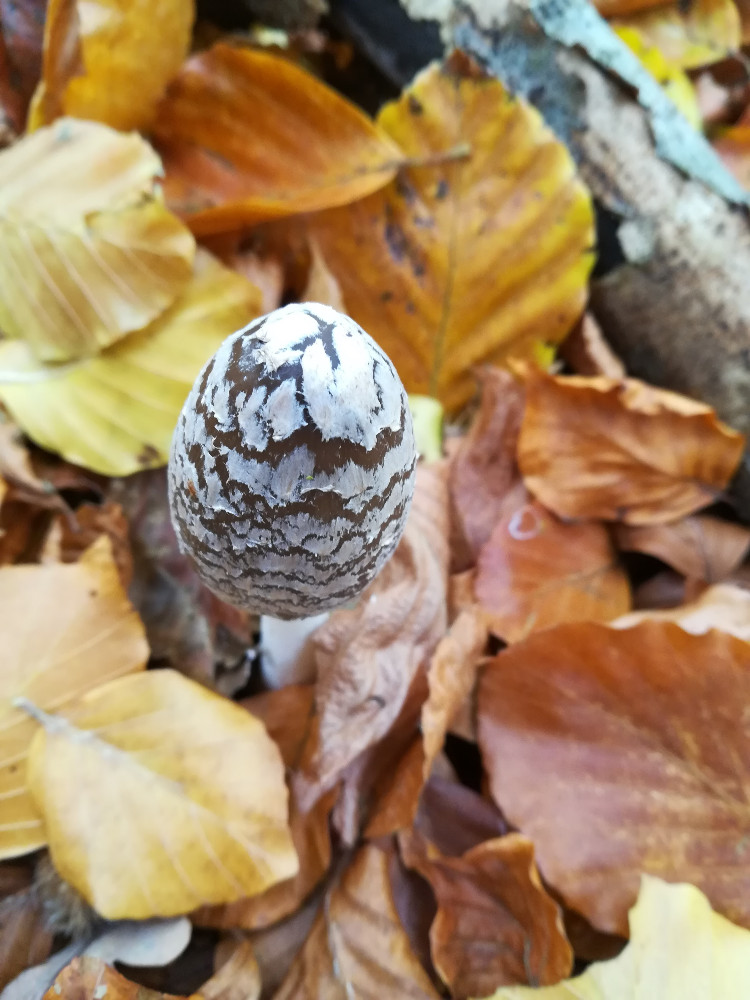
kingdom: Fungi
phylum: Basidiomycota
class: Agaricomycetes
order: Agaricales
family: Psathyrellaceae
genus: Coprinopsis
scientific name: Coprinopsis picacea
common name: skade-blækhat
